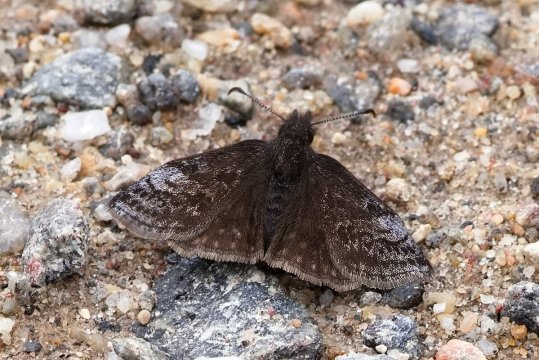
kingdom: Animalia
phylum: Arthropoda
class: Insecta
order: Lepidoptera
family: Hesperiidae
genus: Erynnis
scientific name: Erynnis icelus
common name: Dreamy Duskywing
